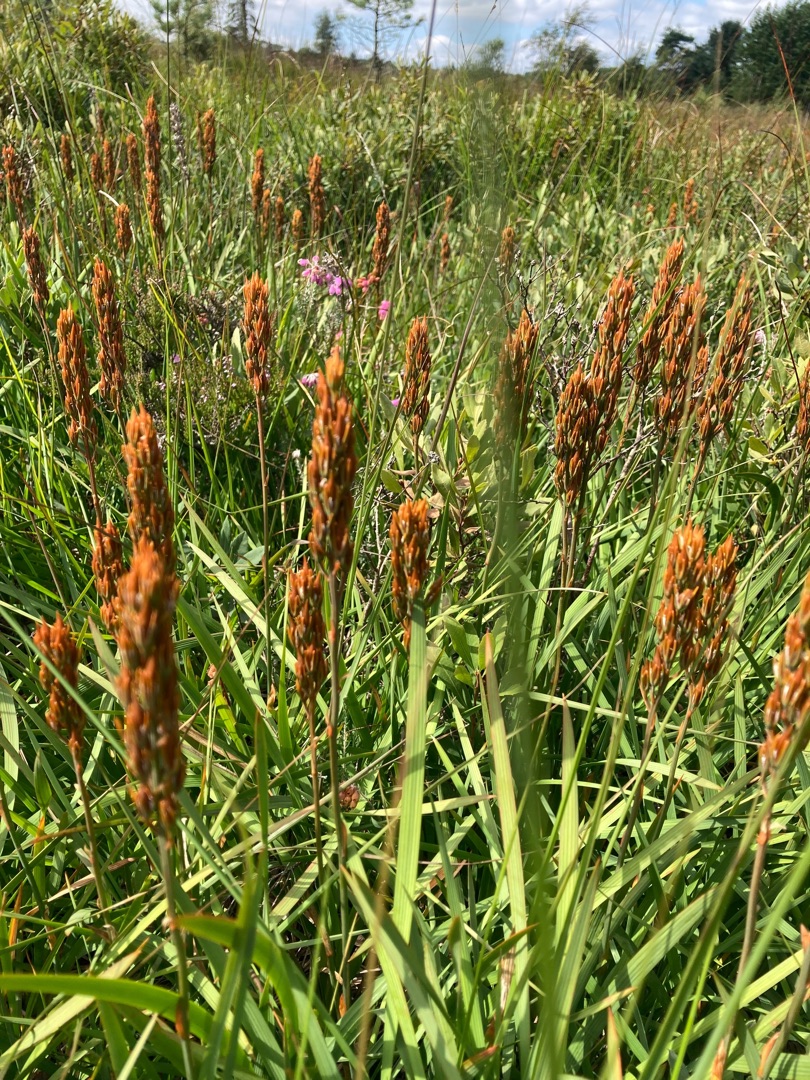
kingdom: Plantae
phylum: Tracheophyta
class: Liliopsida
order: Dioscoreales
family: Nartheciaceae
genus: Narthecium
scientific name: Narthecium ossifragum
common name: Benbræk
